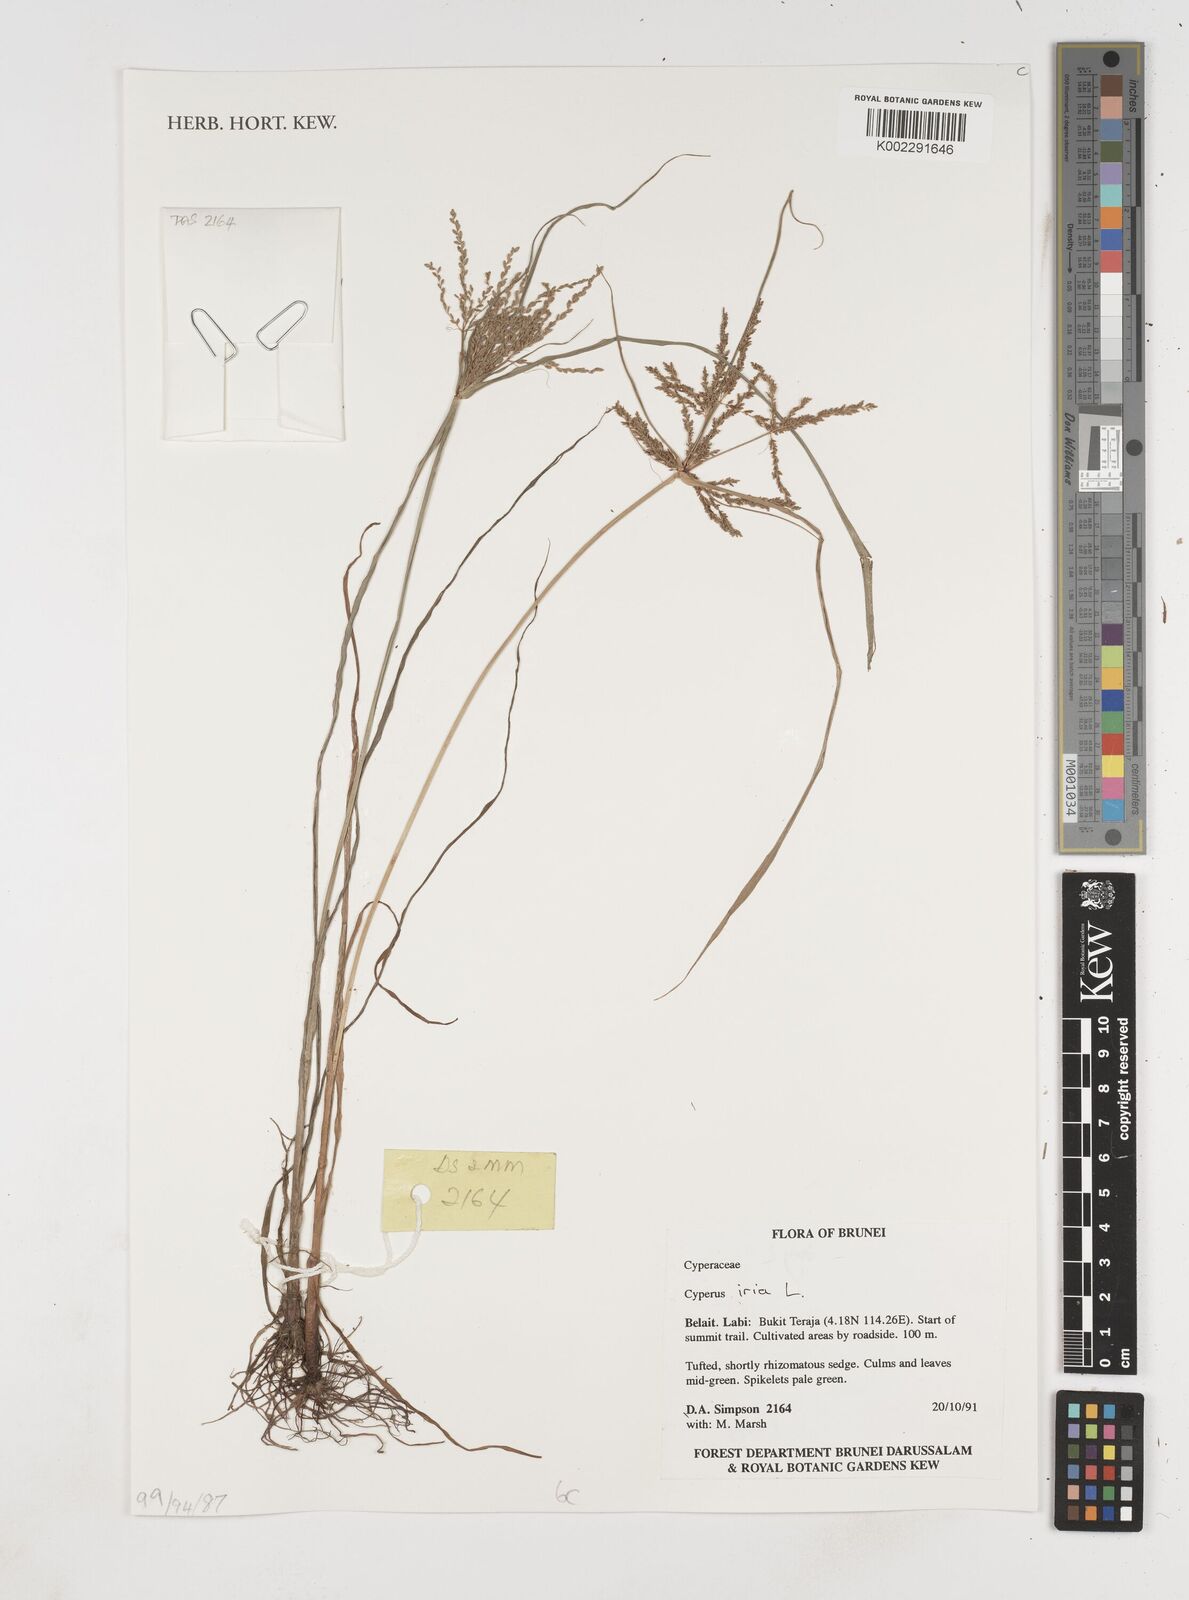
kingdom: Plantae
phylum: Tracheophyta
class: Liliopsida
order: Poales
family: Cyperaceae
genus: Cyperus
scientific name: Cyperus iria
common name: Ricefield flatsedge
